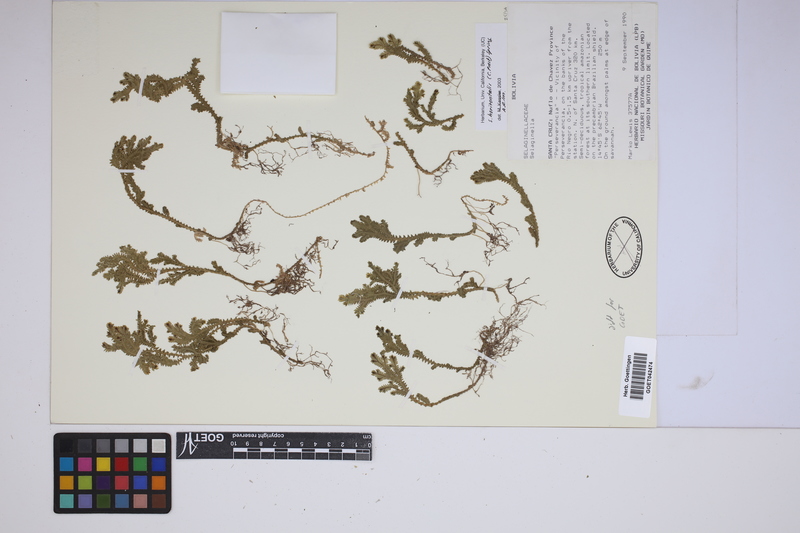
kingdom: Plantae
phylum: Tracheophyta
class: Lycopodiopsida
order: Selaginellales
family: Selaginellaceae
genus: Selaginella
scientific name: Selaginella horizontalis
